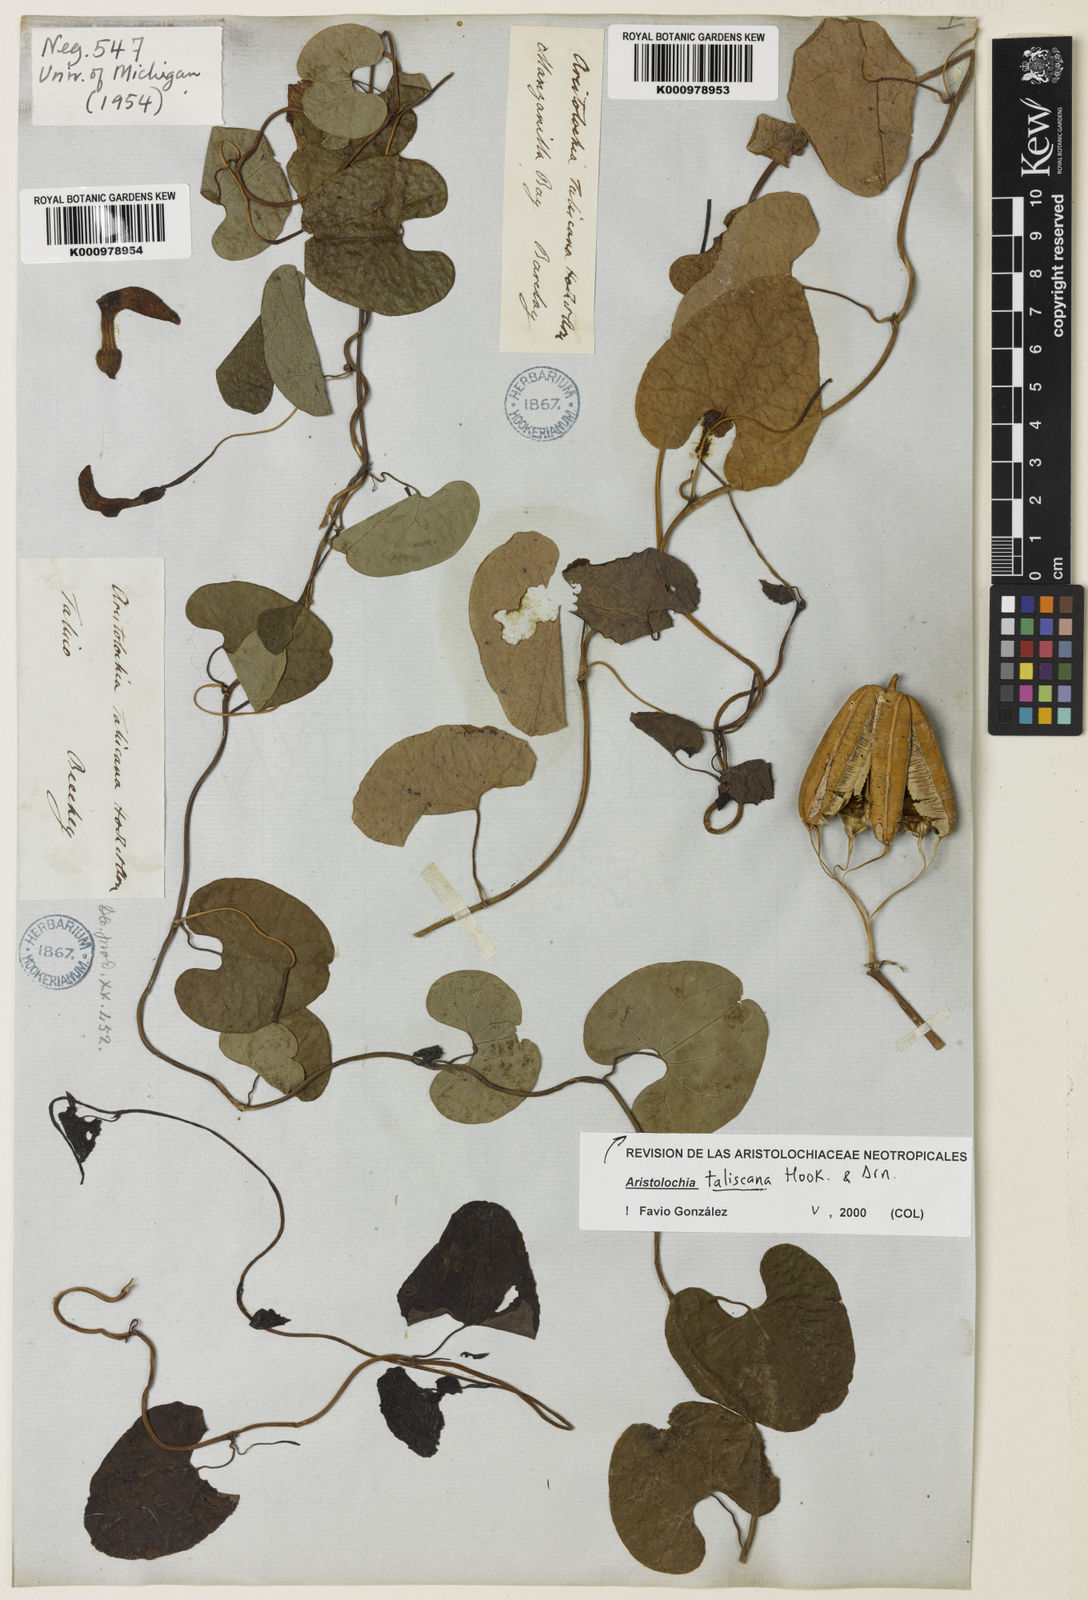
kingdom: Plantae
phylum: Tracheophyta
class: Magnoliopsida
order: Piperales
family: Aristolochiaceae
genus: Aristolochia
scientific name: Aristolochia taliscana
